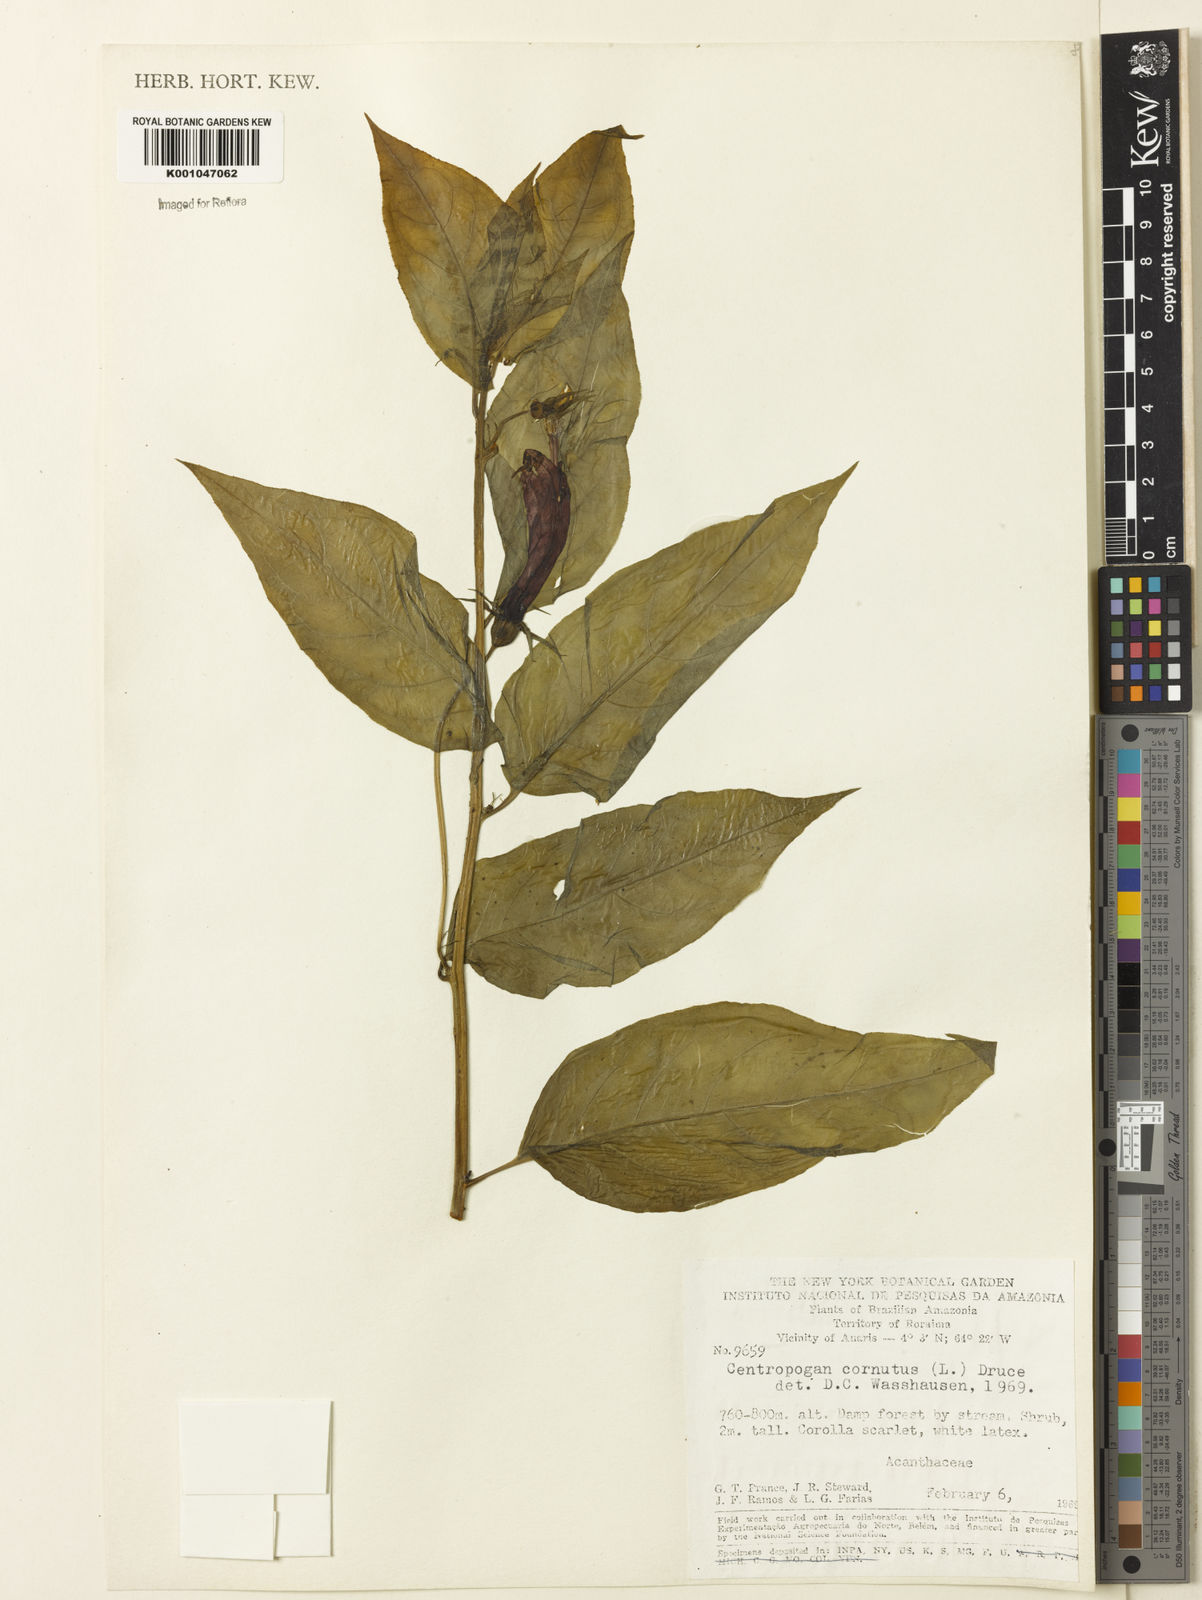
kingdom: Plantae
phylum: Tracheophyta
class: Magnoliopsida
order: Asterales
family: Campanulaceae
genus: Centropogon
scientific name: Centropogon cornutus
